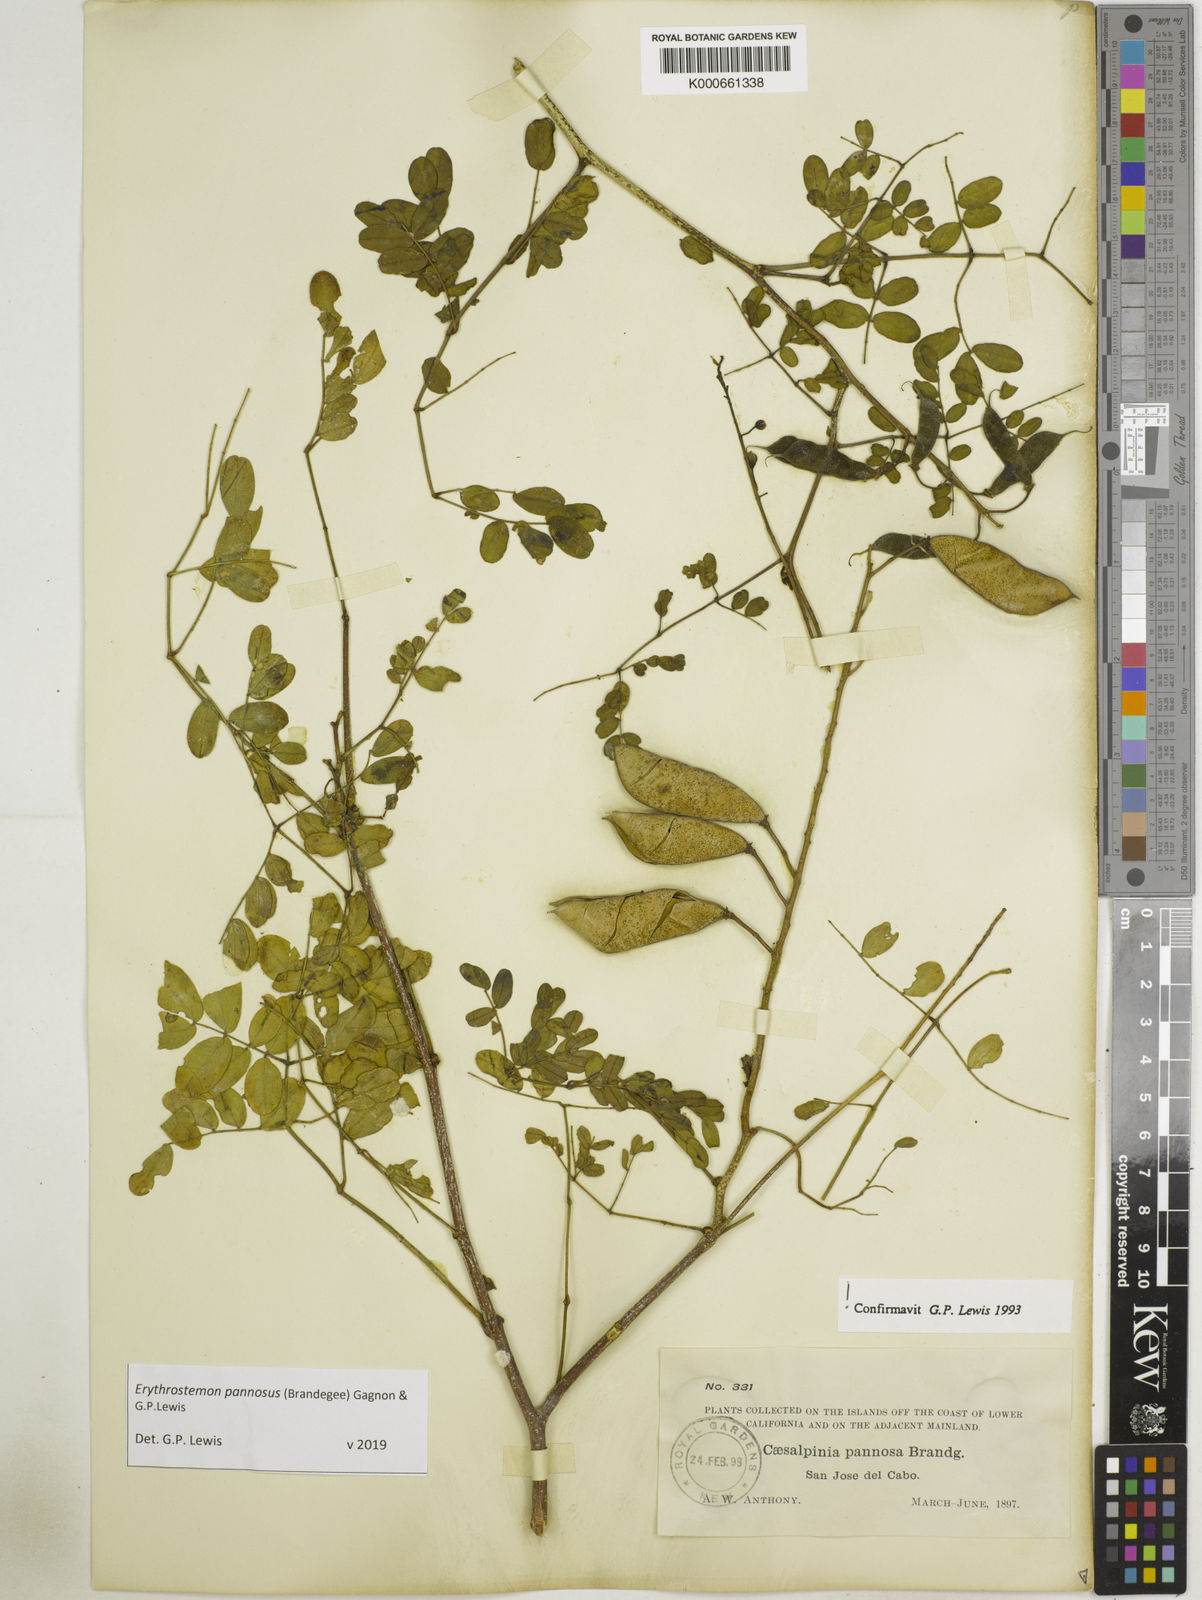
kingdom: Plantae
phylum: Tracheophyta
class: Magnoliopsida
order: Fabales
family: Fabaceae
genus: Erythrostemon
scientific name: Erythrostemon pannosus
